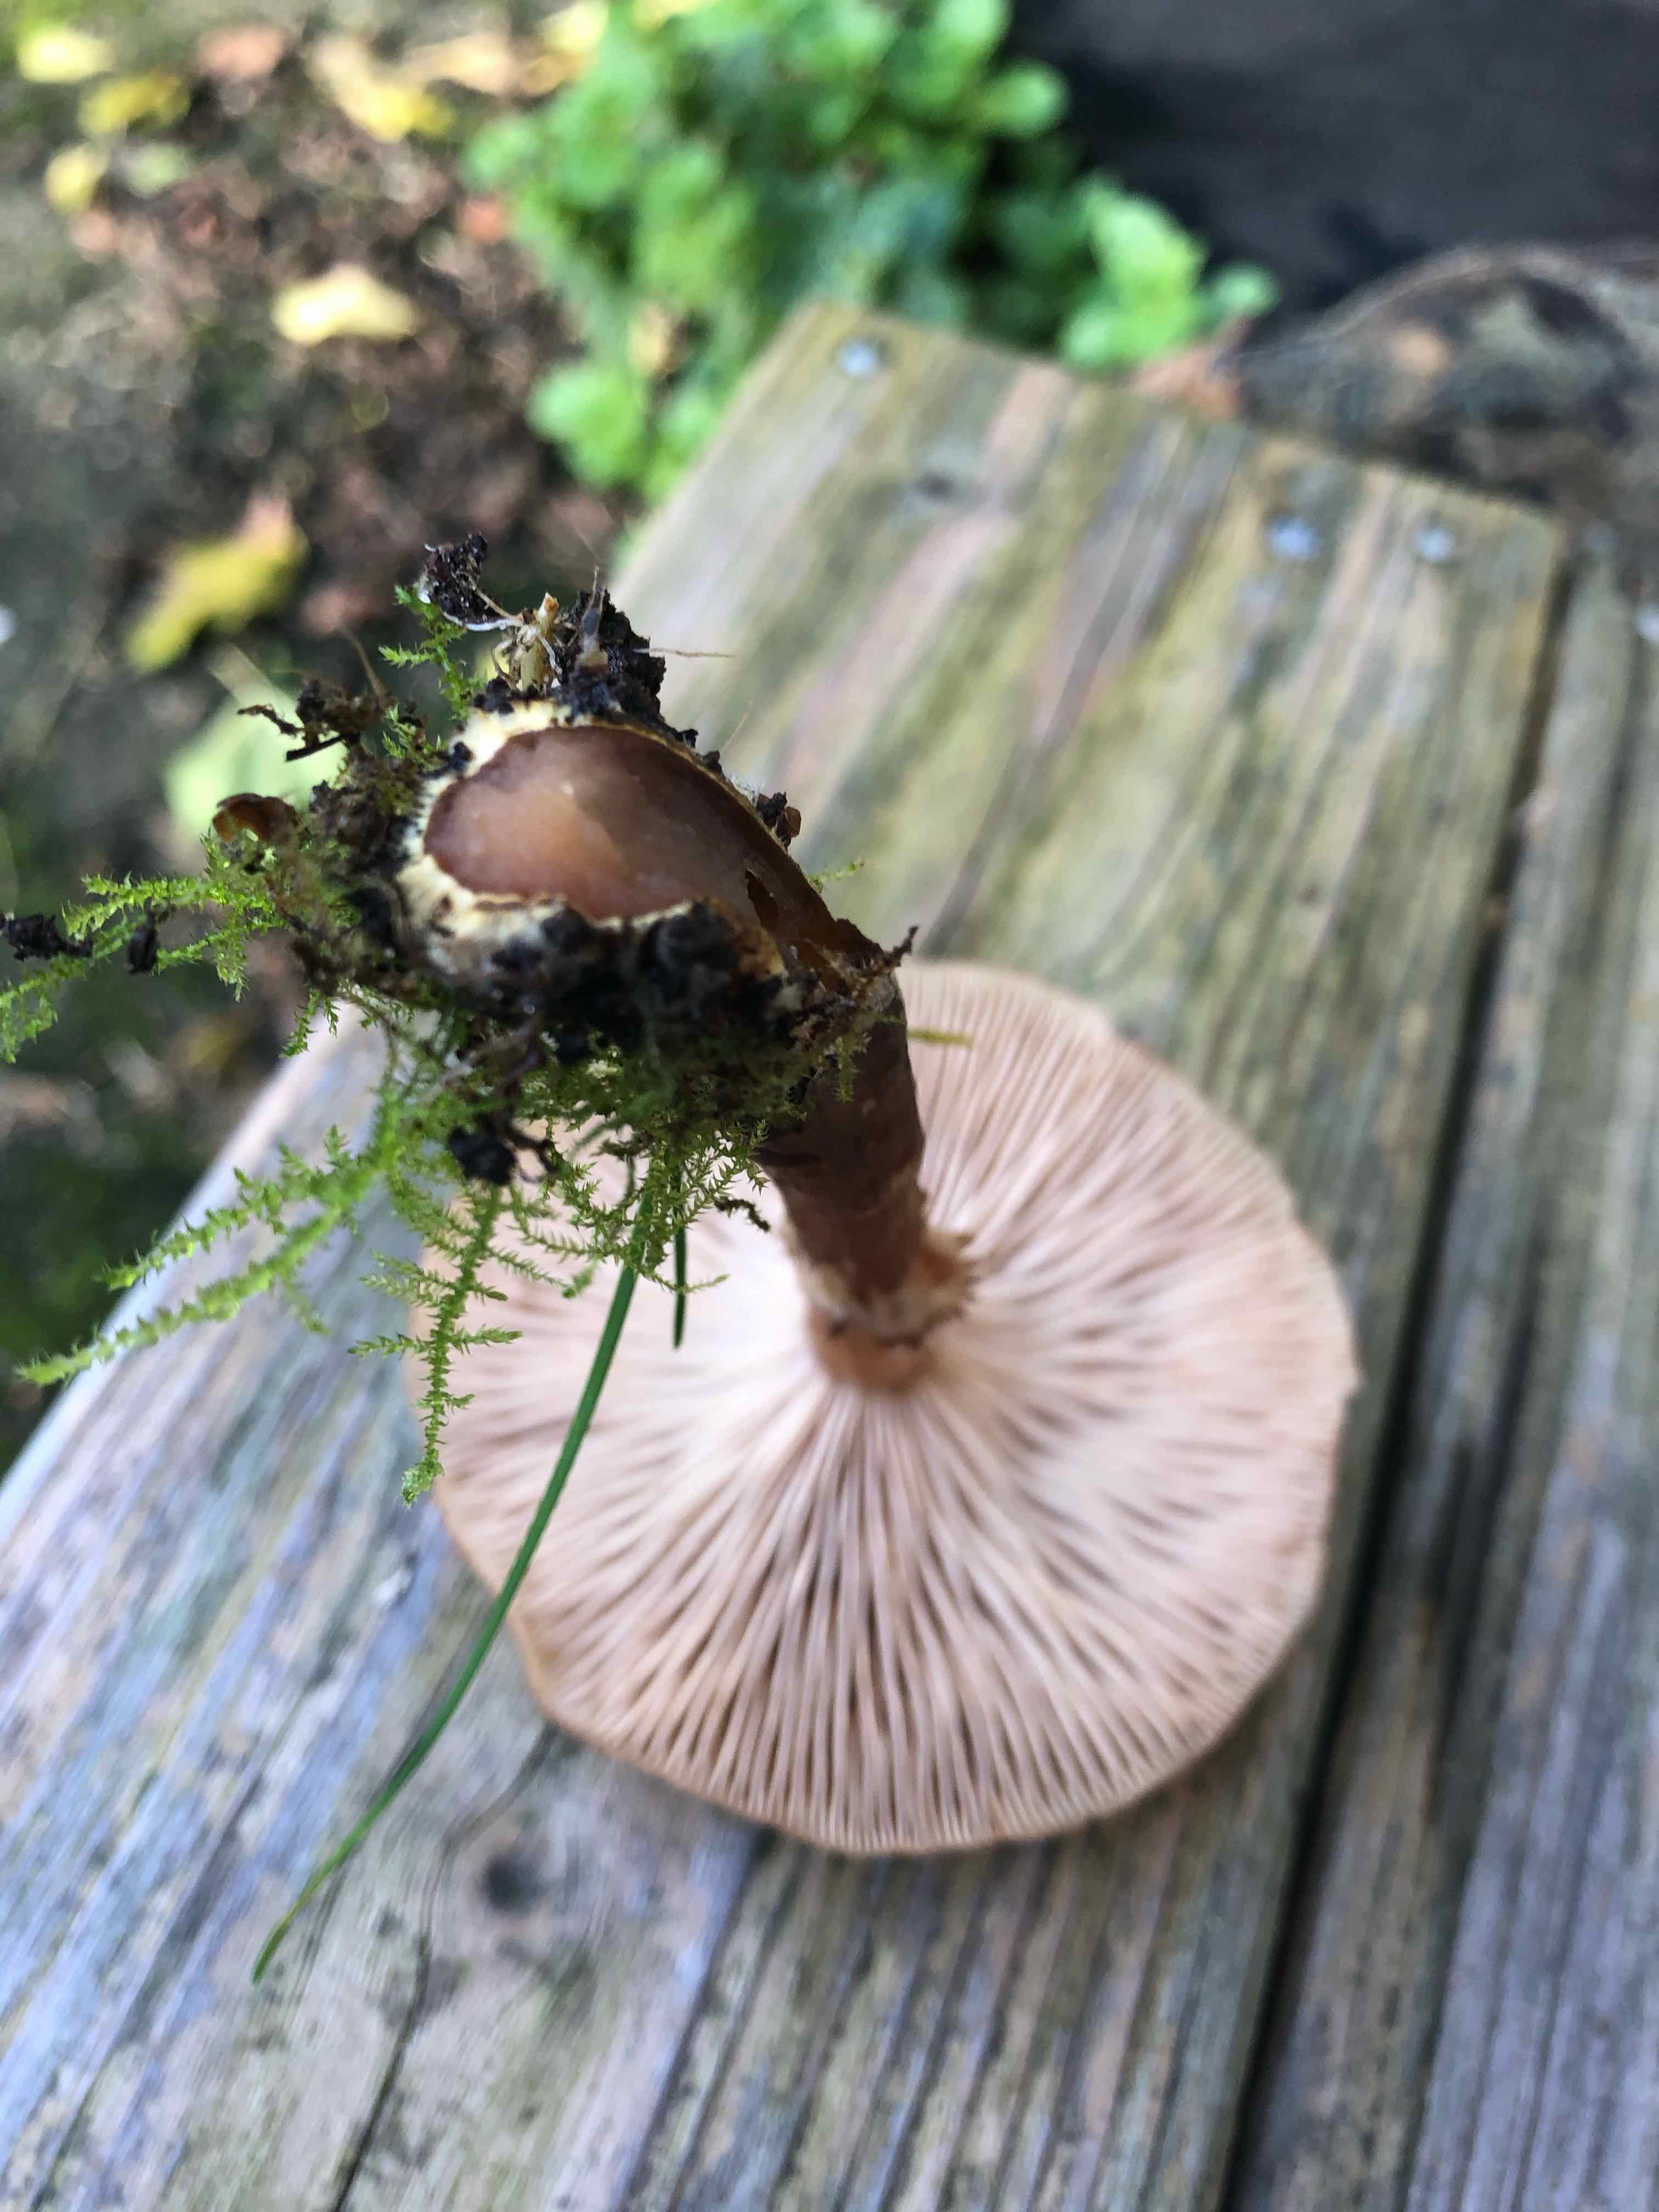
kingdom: Fungi
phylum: Basidiomycota
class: Agaricomycetes
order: Agaricales
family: Physalacriaceae
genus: Armillaria
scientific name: Armillaria
